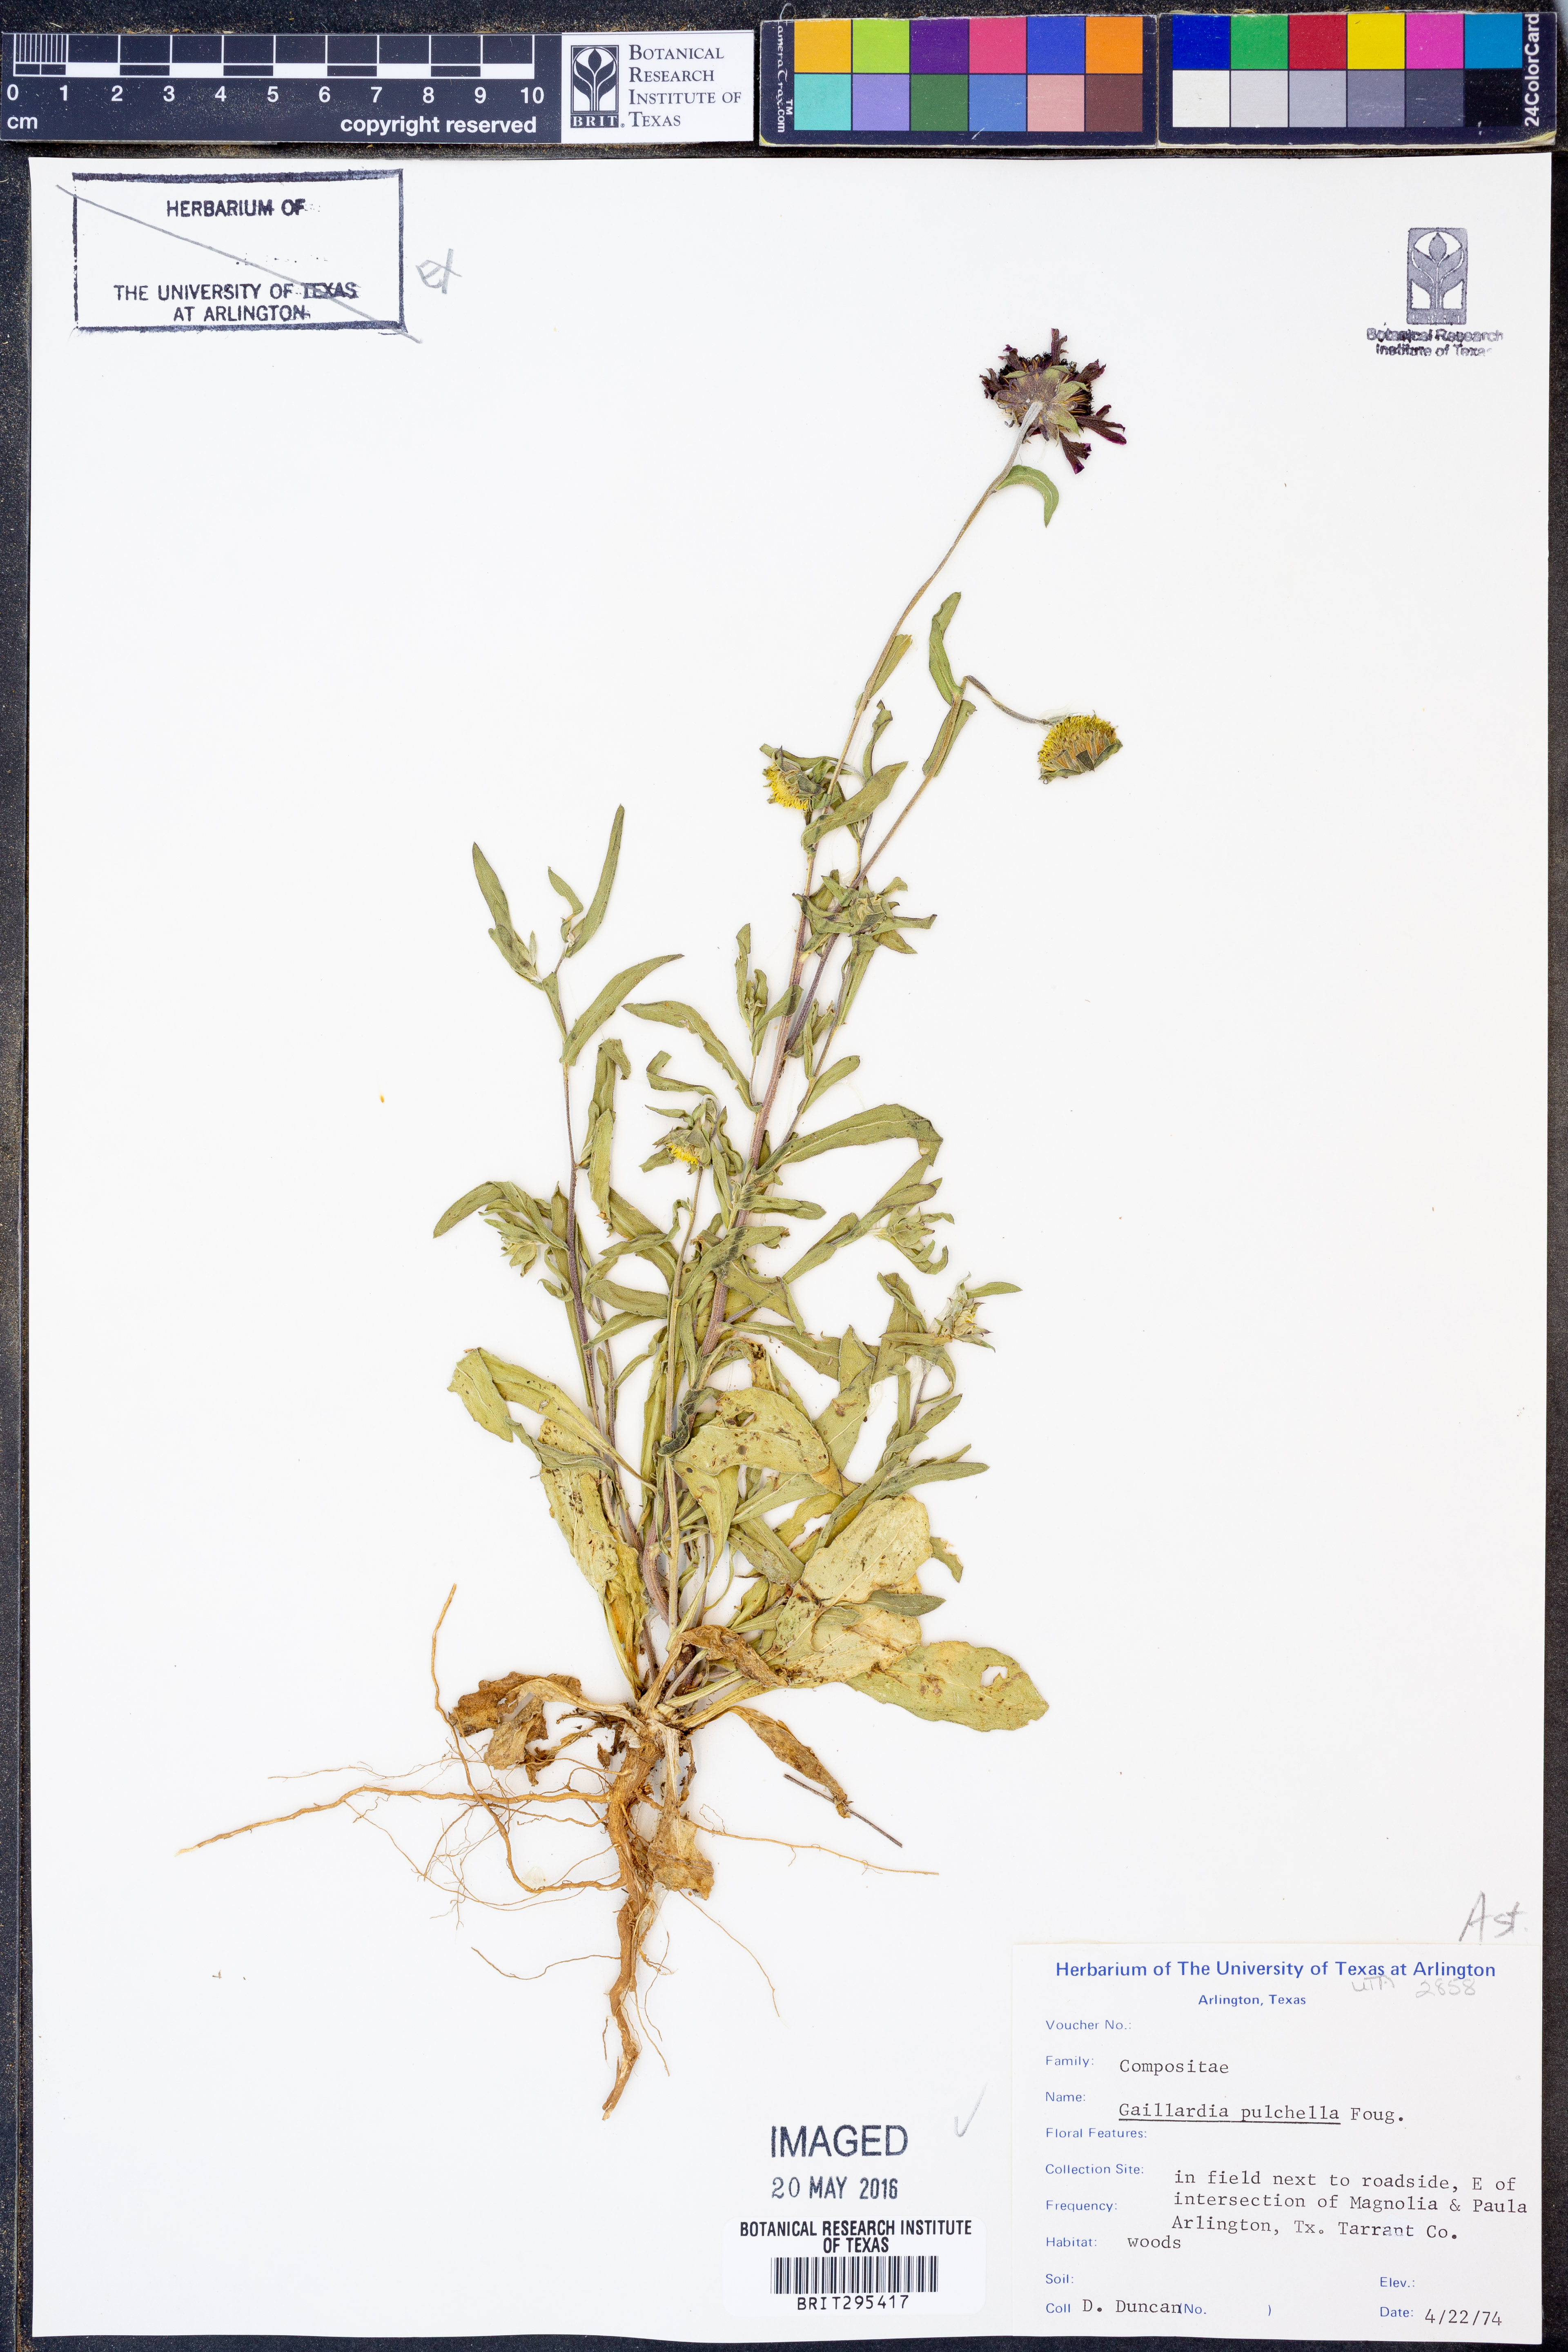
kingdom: Plantae
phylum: Tracheophyta
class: Magnoliopsida
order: Asterales
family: Asteraceae
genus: Gaillardia
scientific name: Gaillardia pulchella
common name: Firewheel
